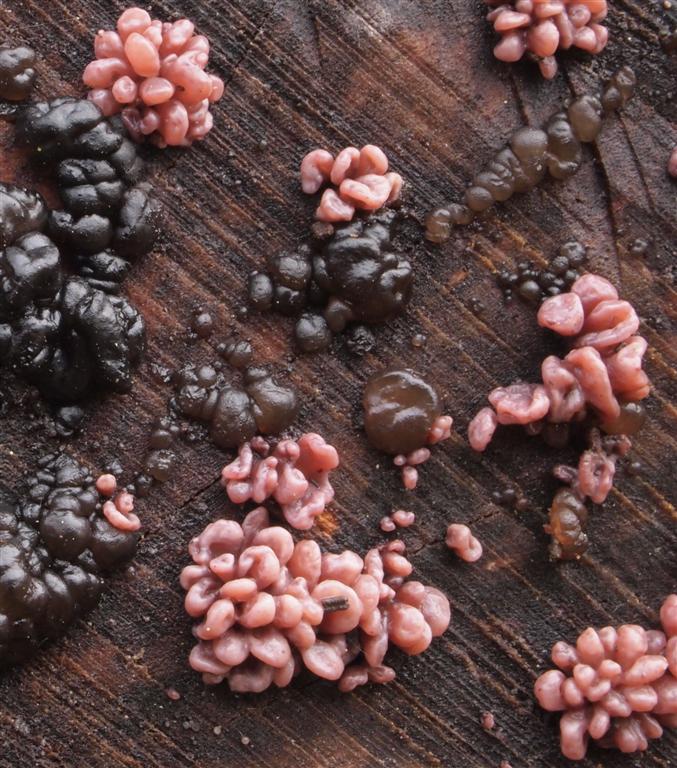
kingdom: Fungi
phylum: Ascomycota
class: Leotiomycetes
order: Helotiales
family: Gelatinodiscaceae
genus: Ascocoryne
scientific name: Ascocoryne sarcoides
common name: rødlilla sejskive
